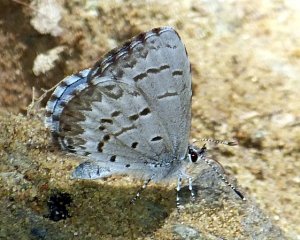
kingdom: Animalia
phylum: Arthropoda
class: Insecta
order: Lepidoptera
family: Lycaenidae
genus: Celastrina
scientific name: Celastrina
